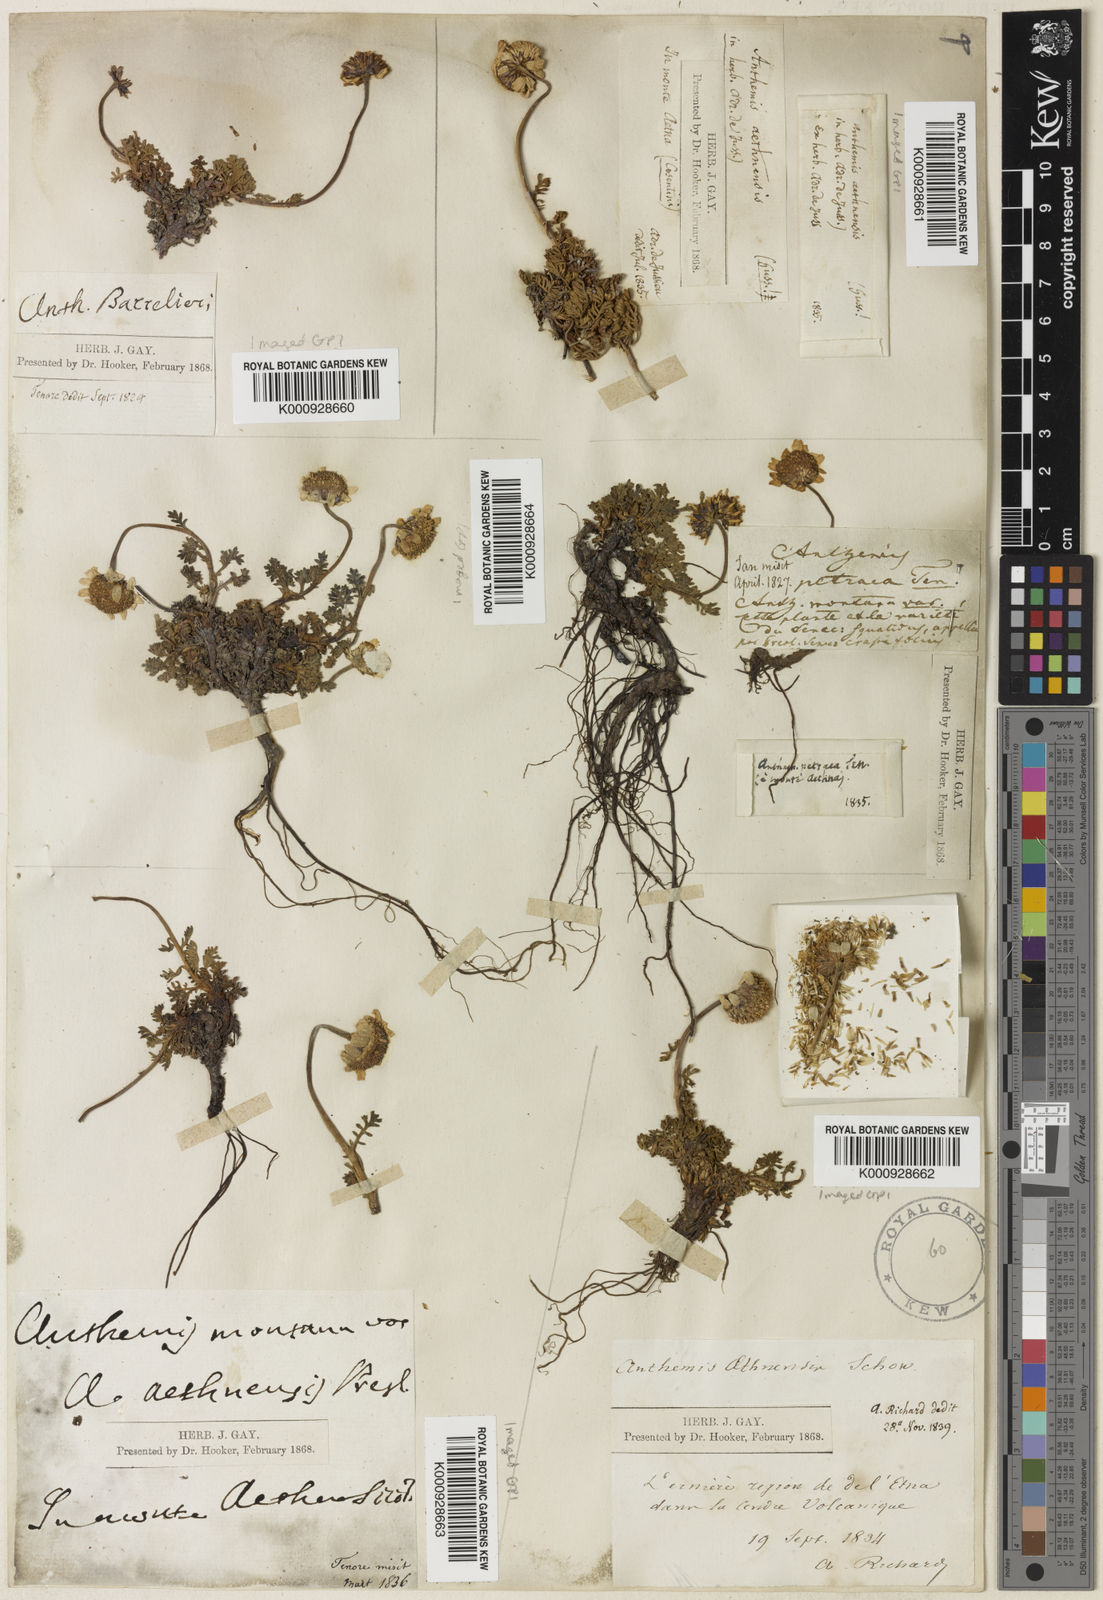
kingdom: Plantae
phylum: Tracheophyta
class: Magnoliopsida
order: Asterales
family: Asteraceae
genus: Anthemis
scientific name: Anthemis aetnensis
